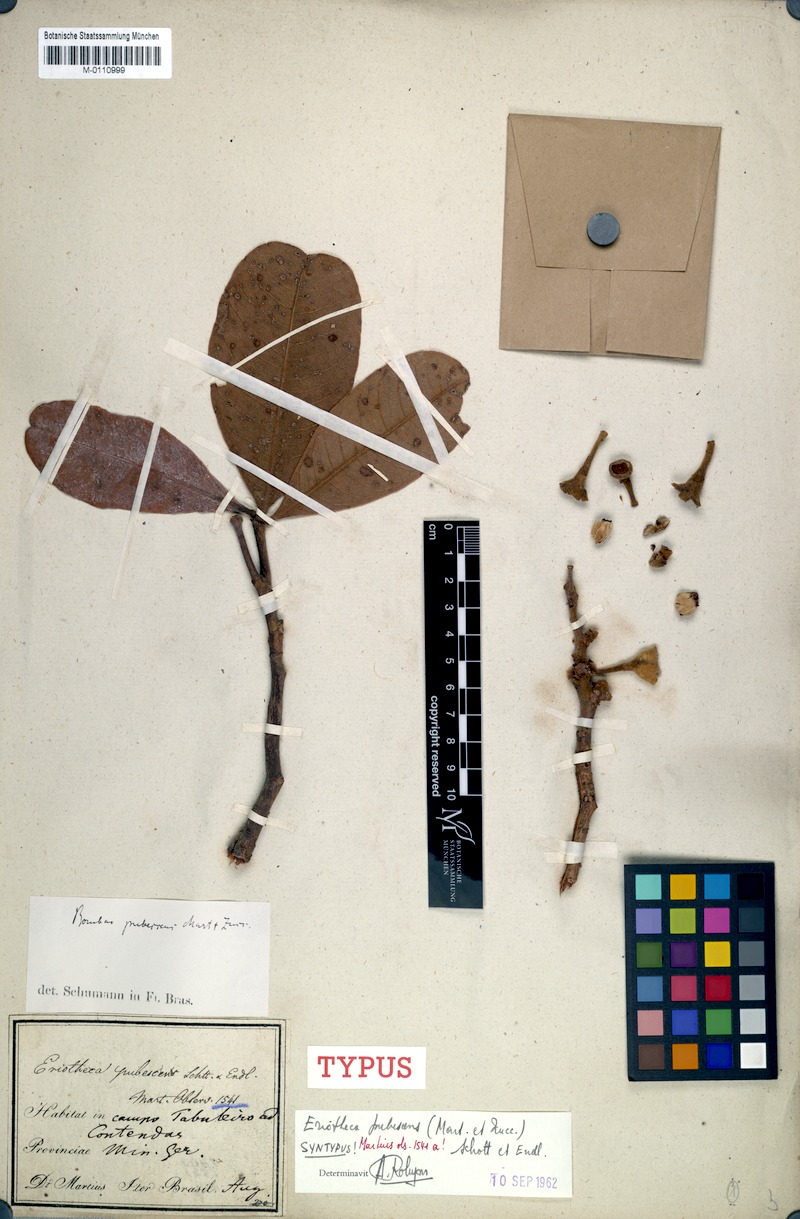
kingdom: Plantae
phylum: Tracheophyta
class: Magnoliopsida
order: Malvales
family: Malvaceae
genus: Eriotheca
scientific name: Eriotheca pubescens
